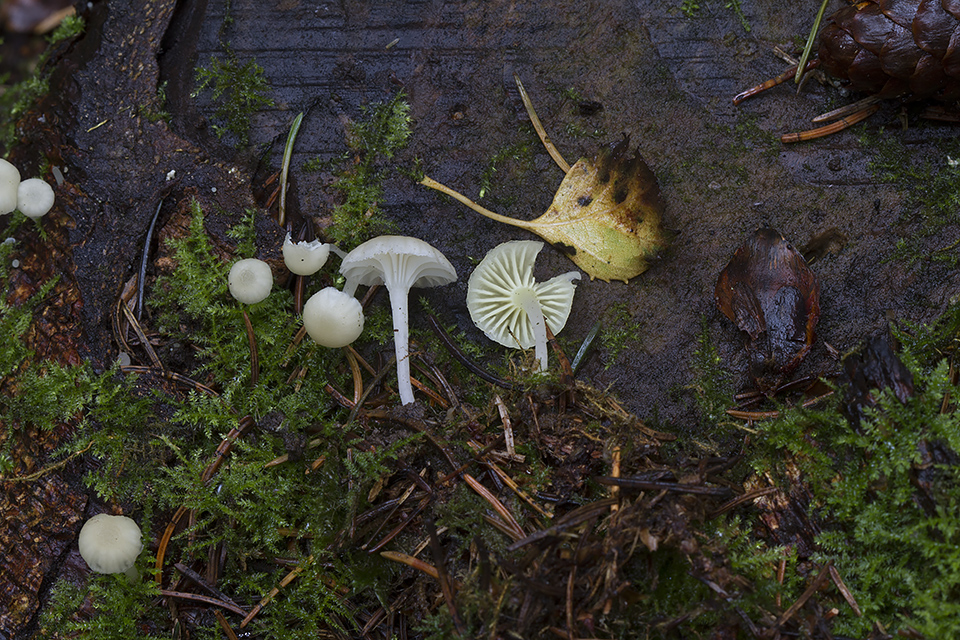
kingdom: Fungi
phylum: Basidiomycota
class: Agaricomycetes
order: Agaricales
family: Hygrophoraceae
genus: Chrysomphalina
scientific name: Chrysomphalina grossula
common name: stød-gyldenblad
